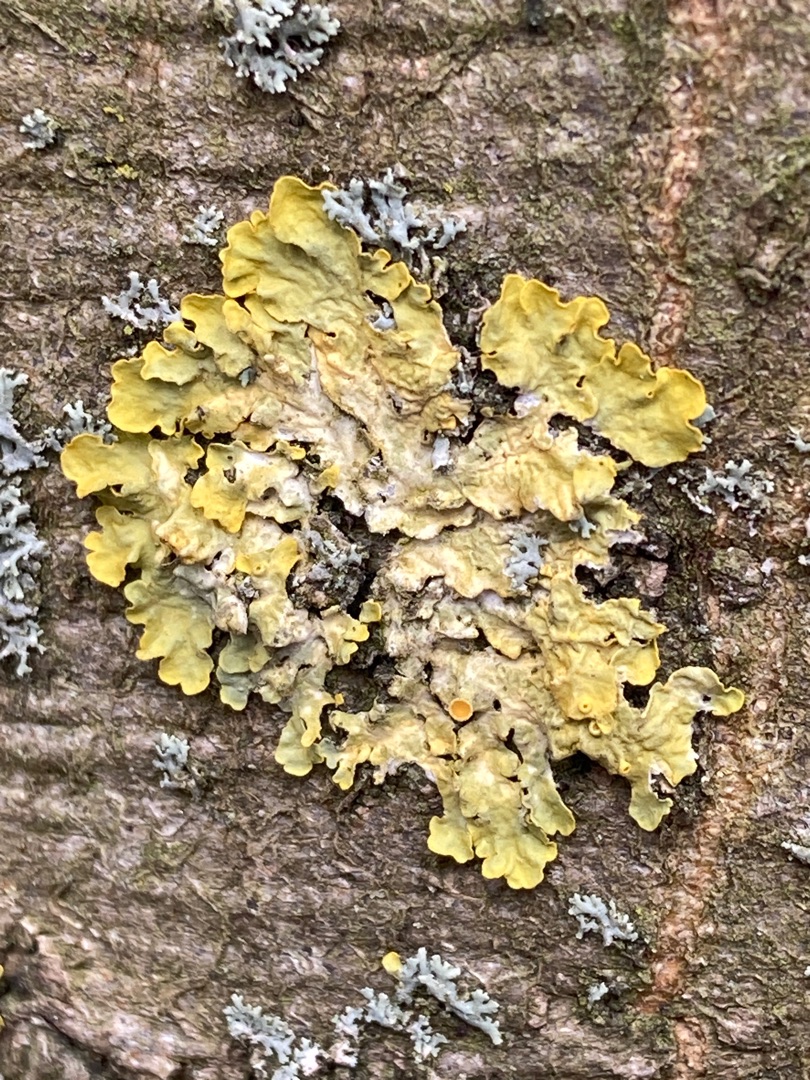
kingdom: Fungi
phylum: Ascomycota
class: Lecanoromycetes
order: Teloschistales
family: Teloschistaceae
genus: Xanthoria
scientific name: Xanthoria parietina
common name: Almindelig væggelav
